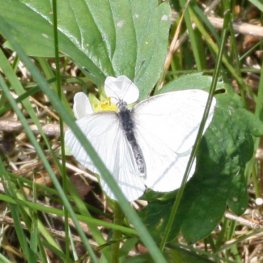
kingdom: Animalia
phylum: Arthropoda
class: Insecta
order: Lepidoptera
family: Pieridae
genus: Pieris
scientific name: Pieris oleracea
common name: Mustard White
